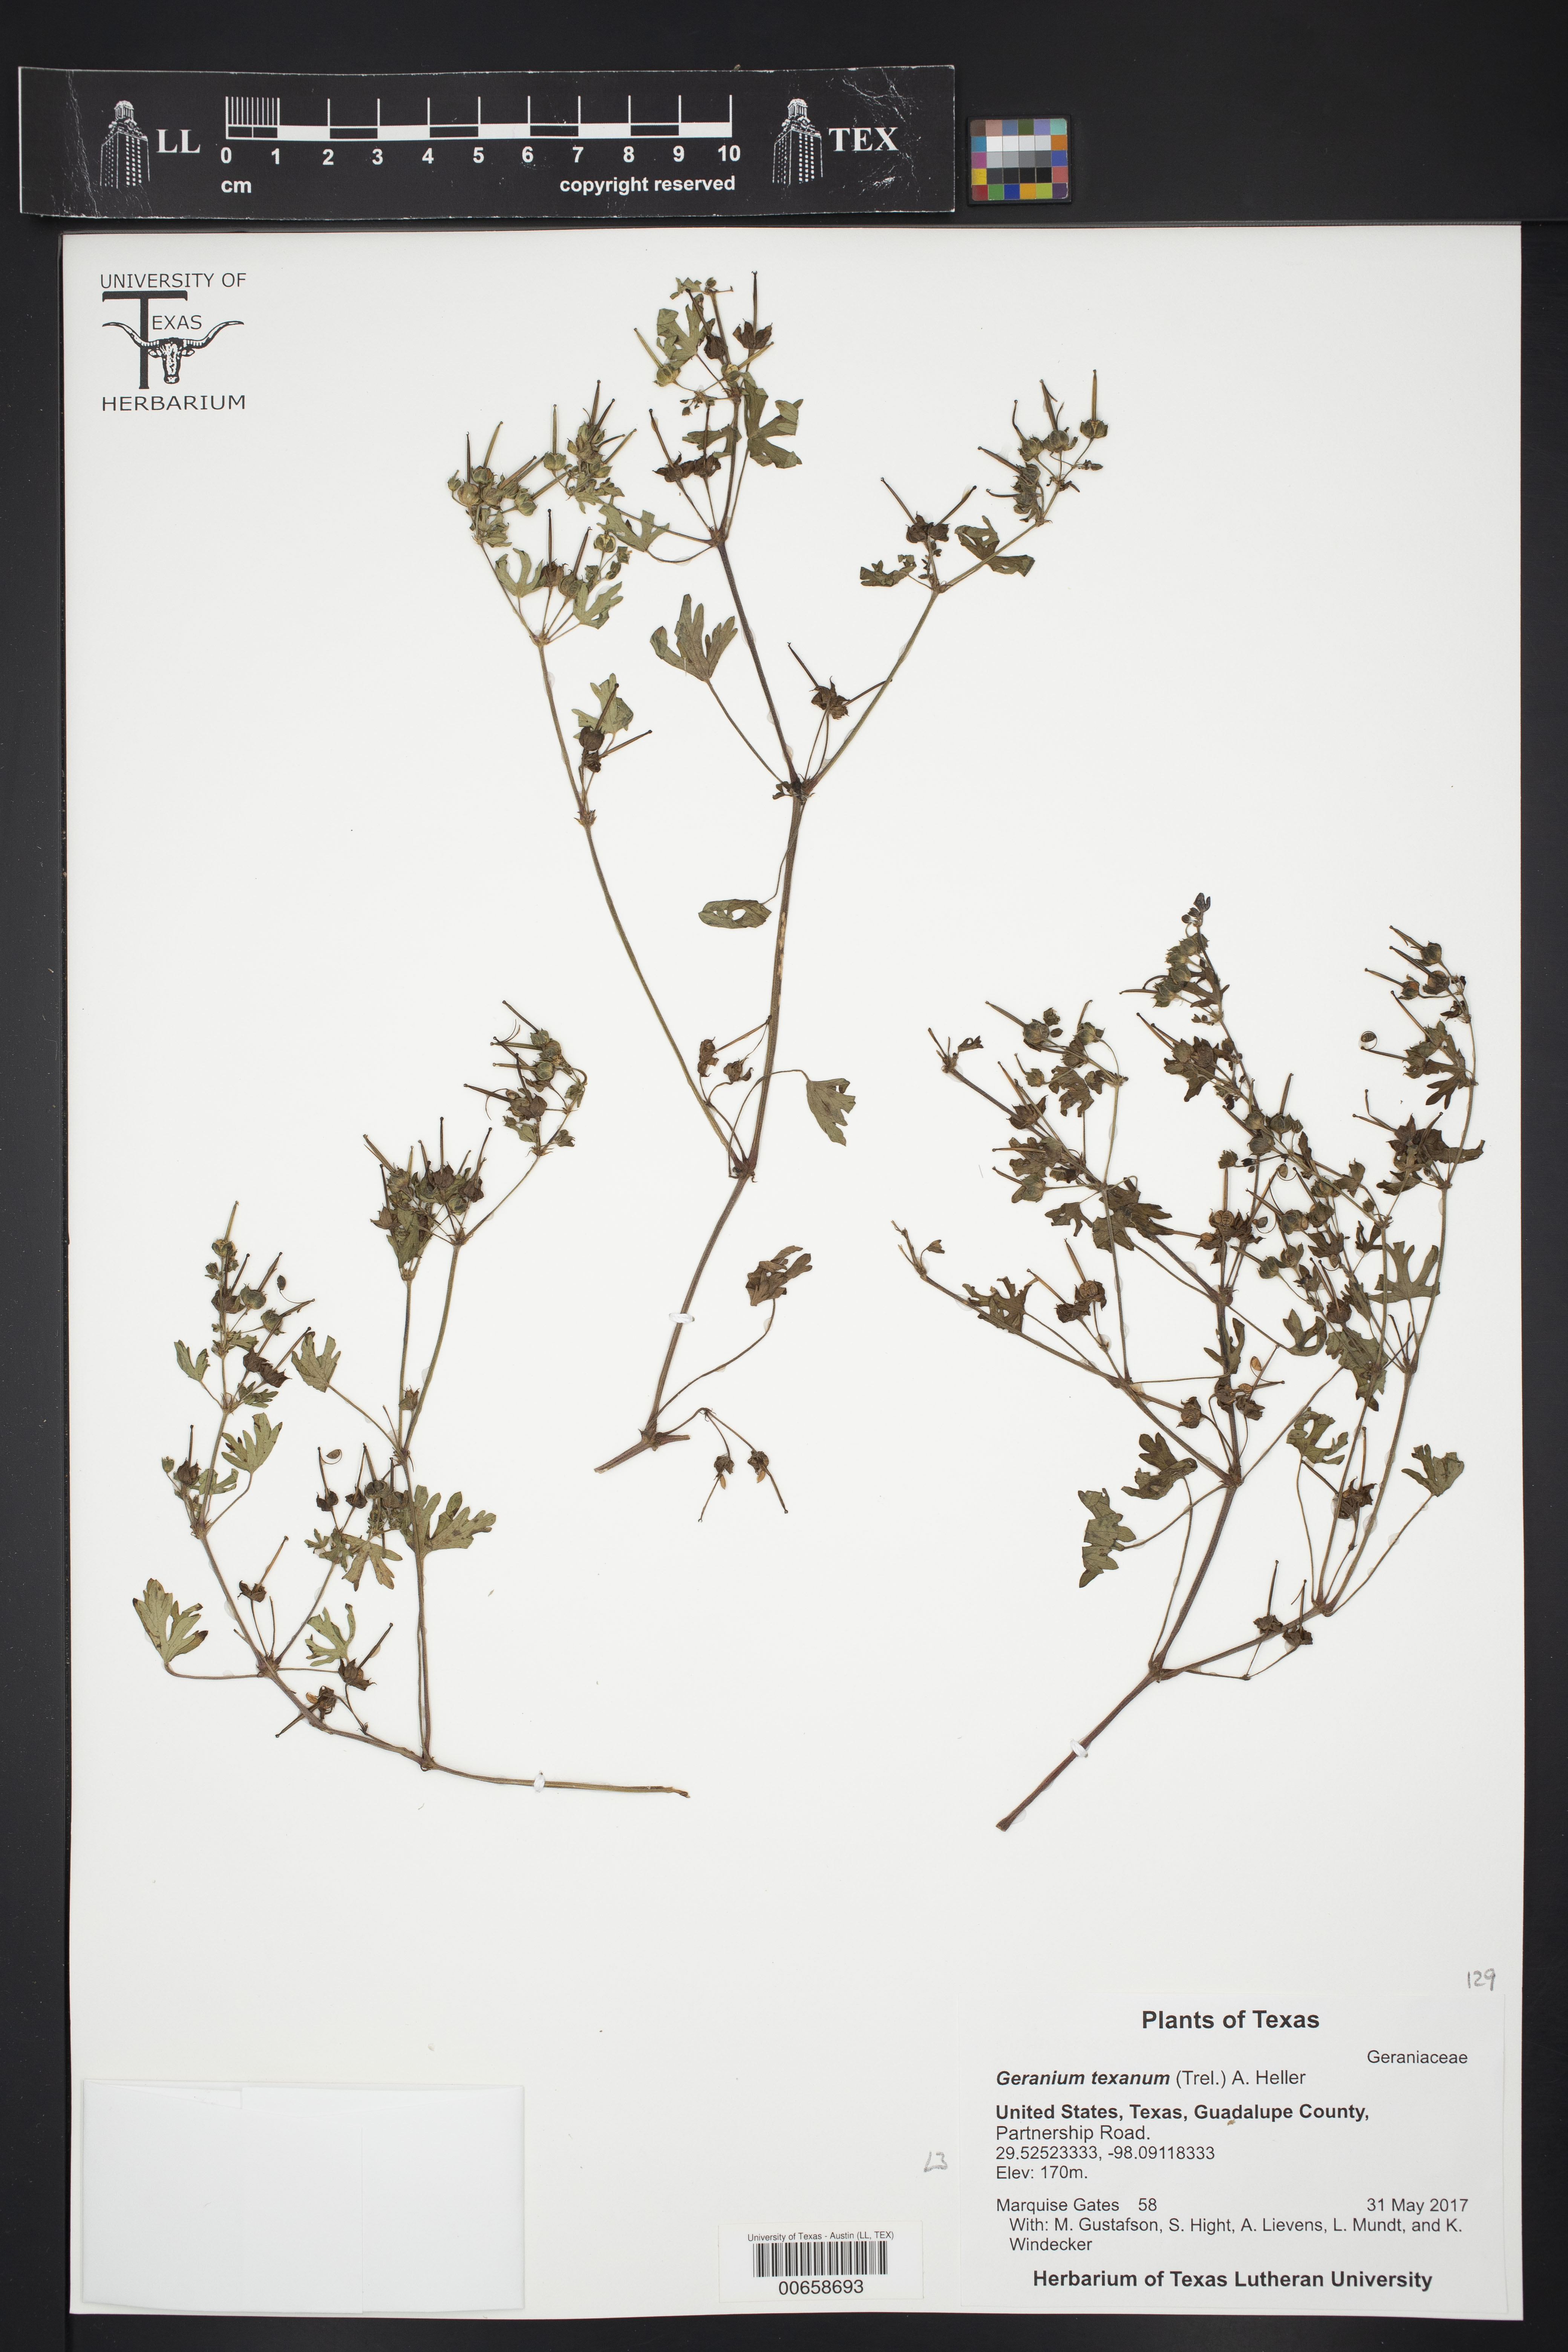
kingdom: Plantae
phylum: Tracheophyta
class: Magnoliopsida
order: Geraniales
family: Geraniaceae
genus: Geranium
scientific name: Geranium texanum
